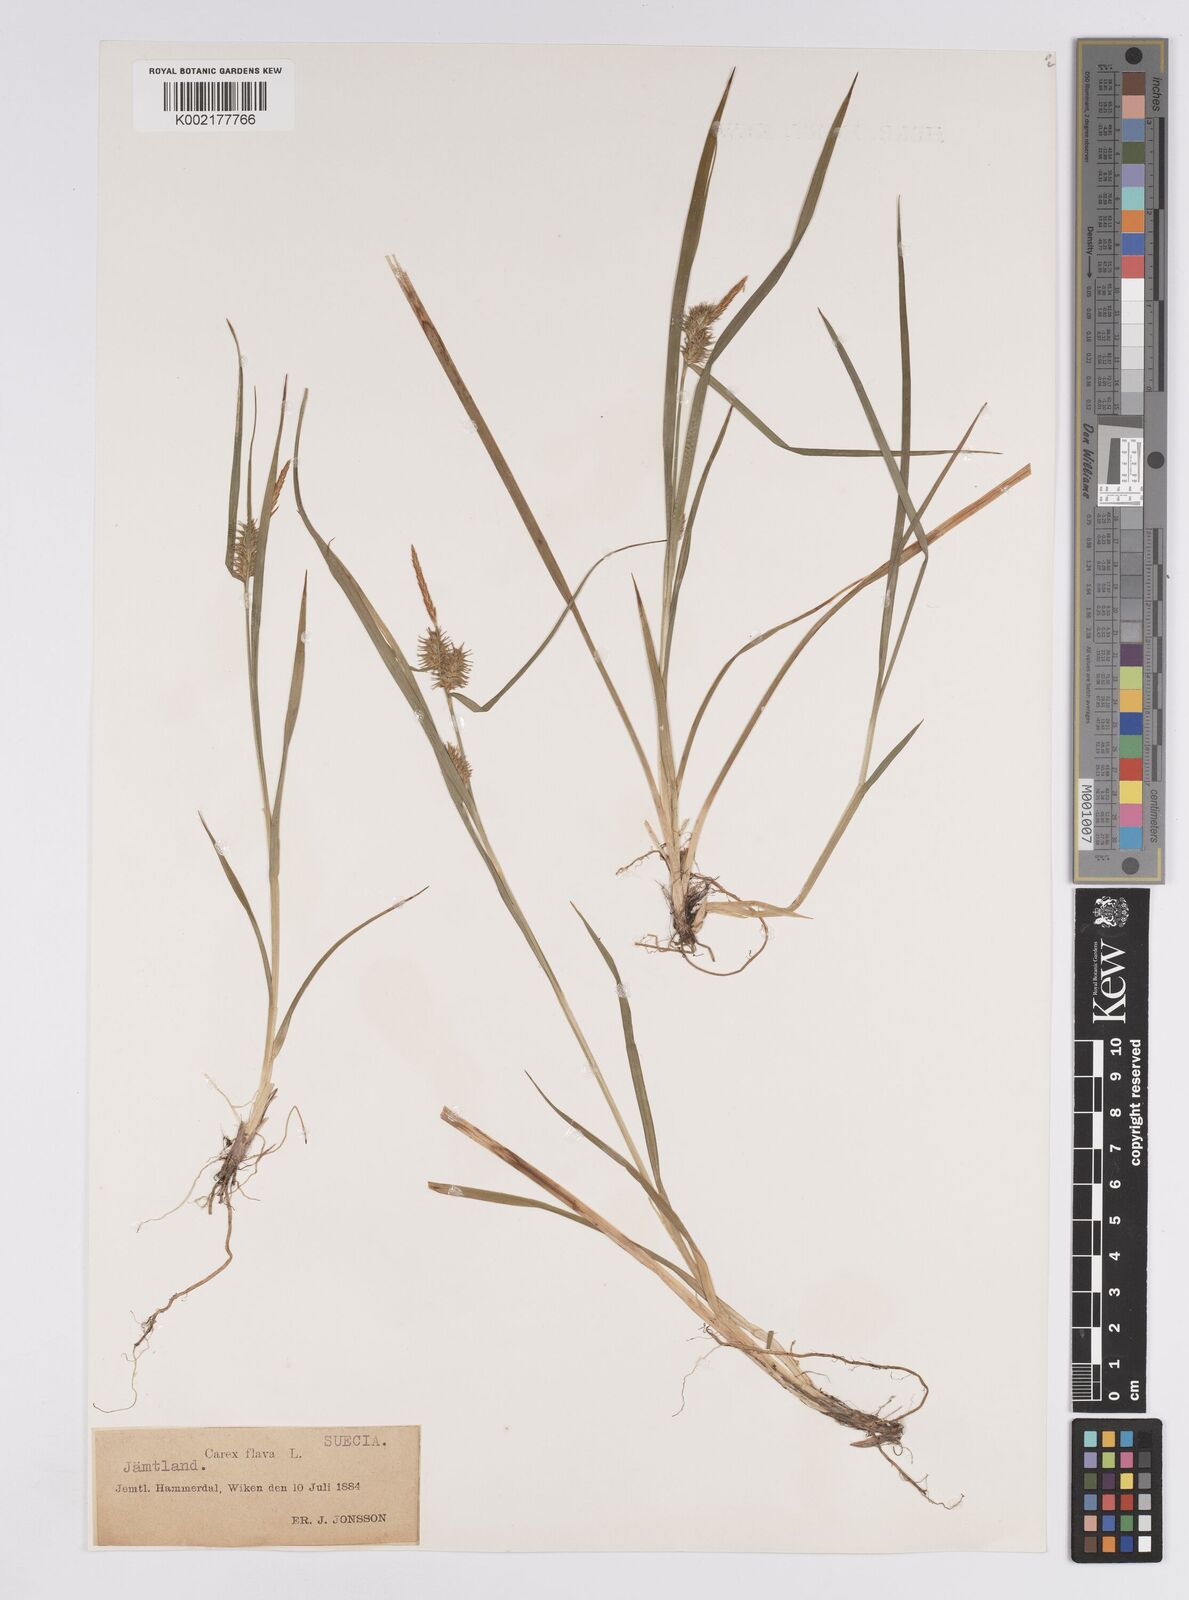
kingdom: Plantae
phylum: Tracheophyta
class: Liliopsida
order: Poales
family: Cyperaceae
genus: Carex
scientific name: Carex flava
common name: Large yellow-sedge
